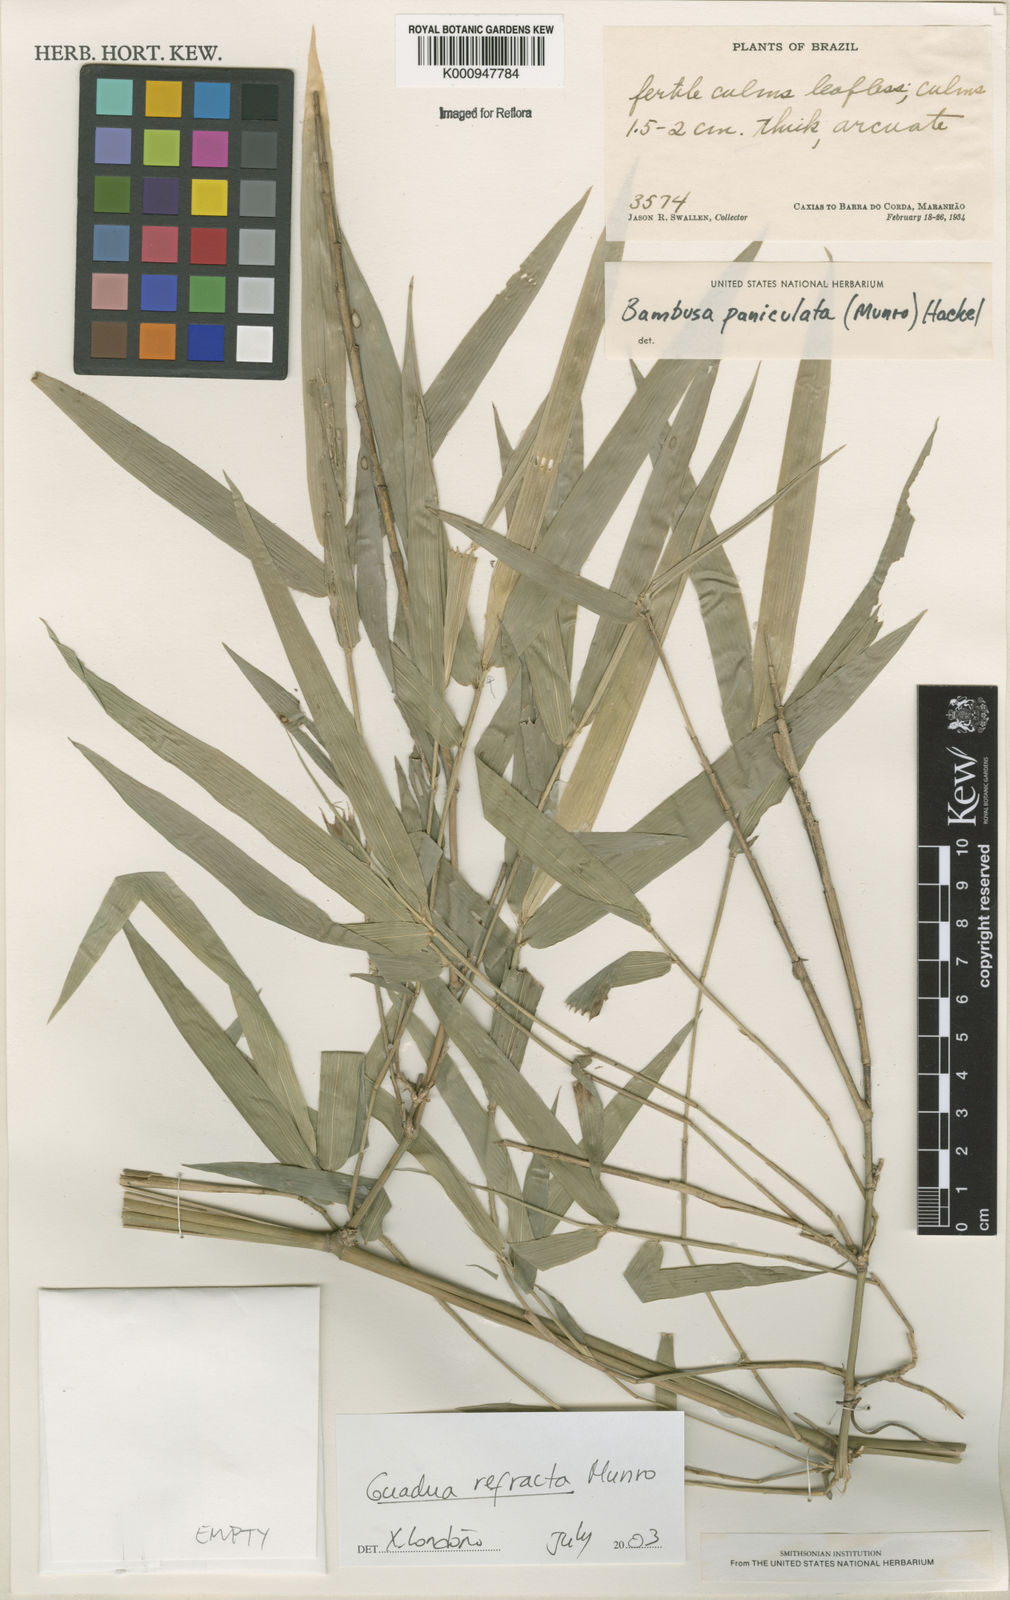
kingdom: Plantae
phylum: Tracheophyta
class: Liliopsida
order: Poales
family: Poaceae
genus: Guadua
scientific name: Guadua
